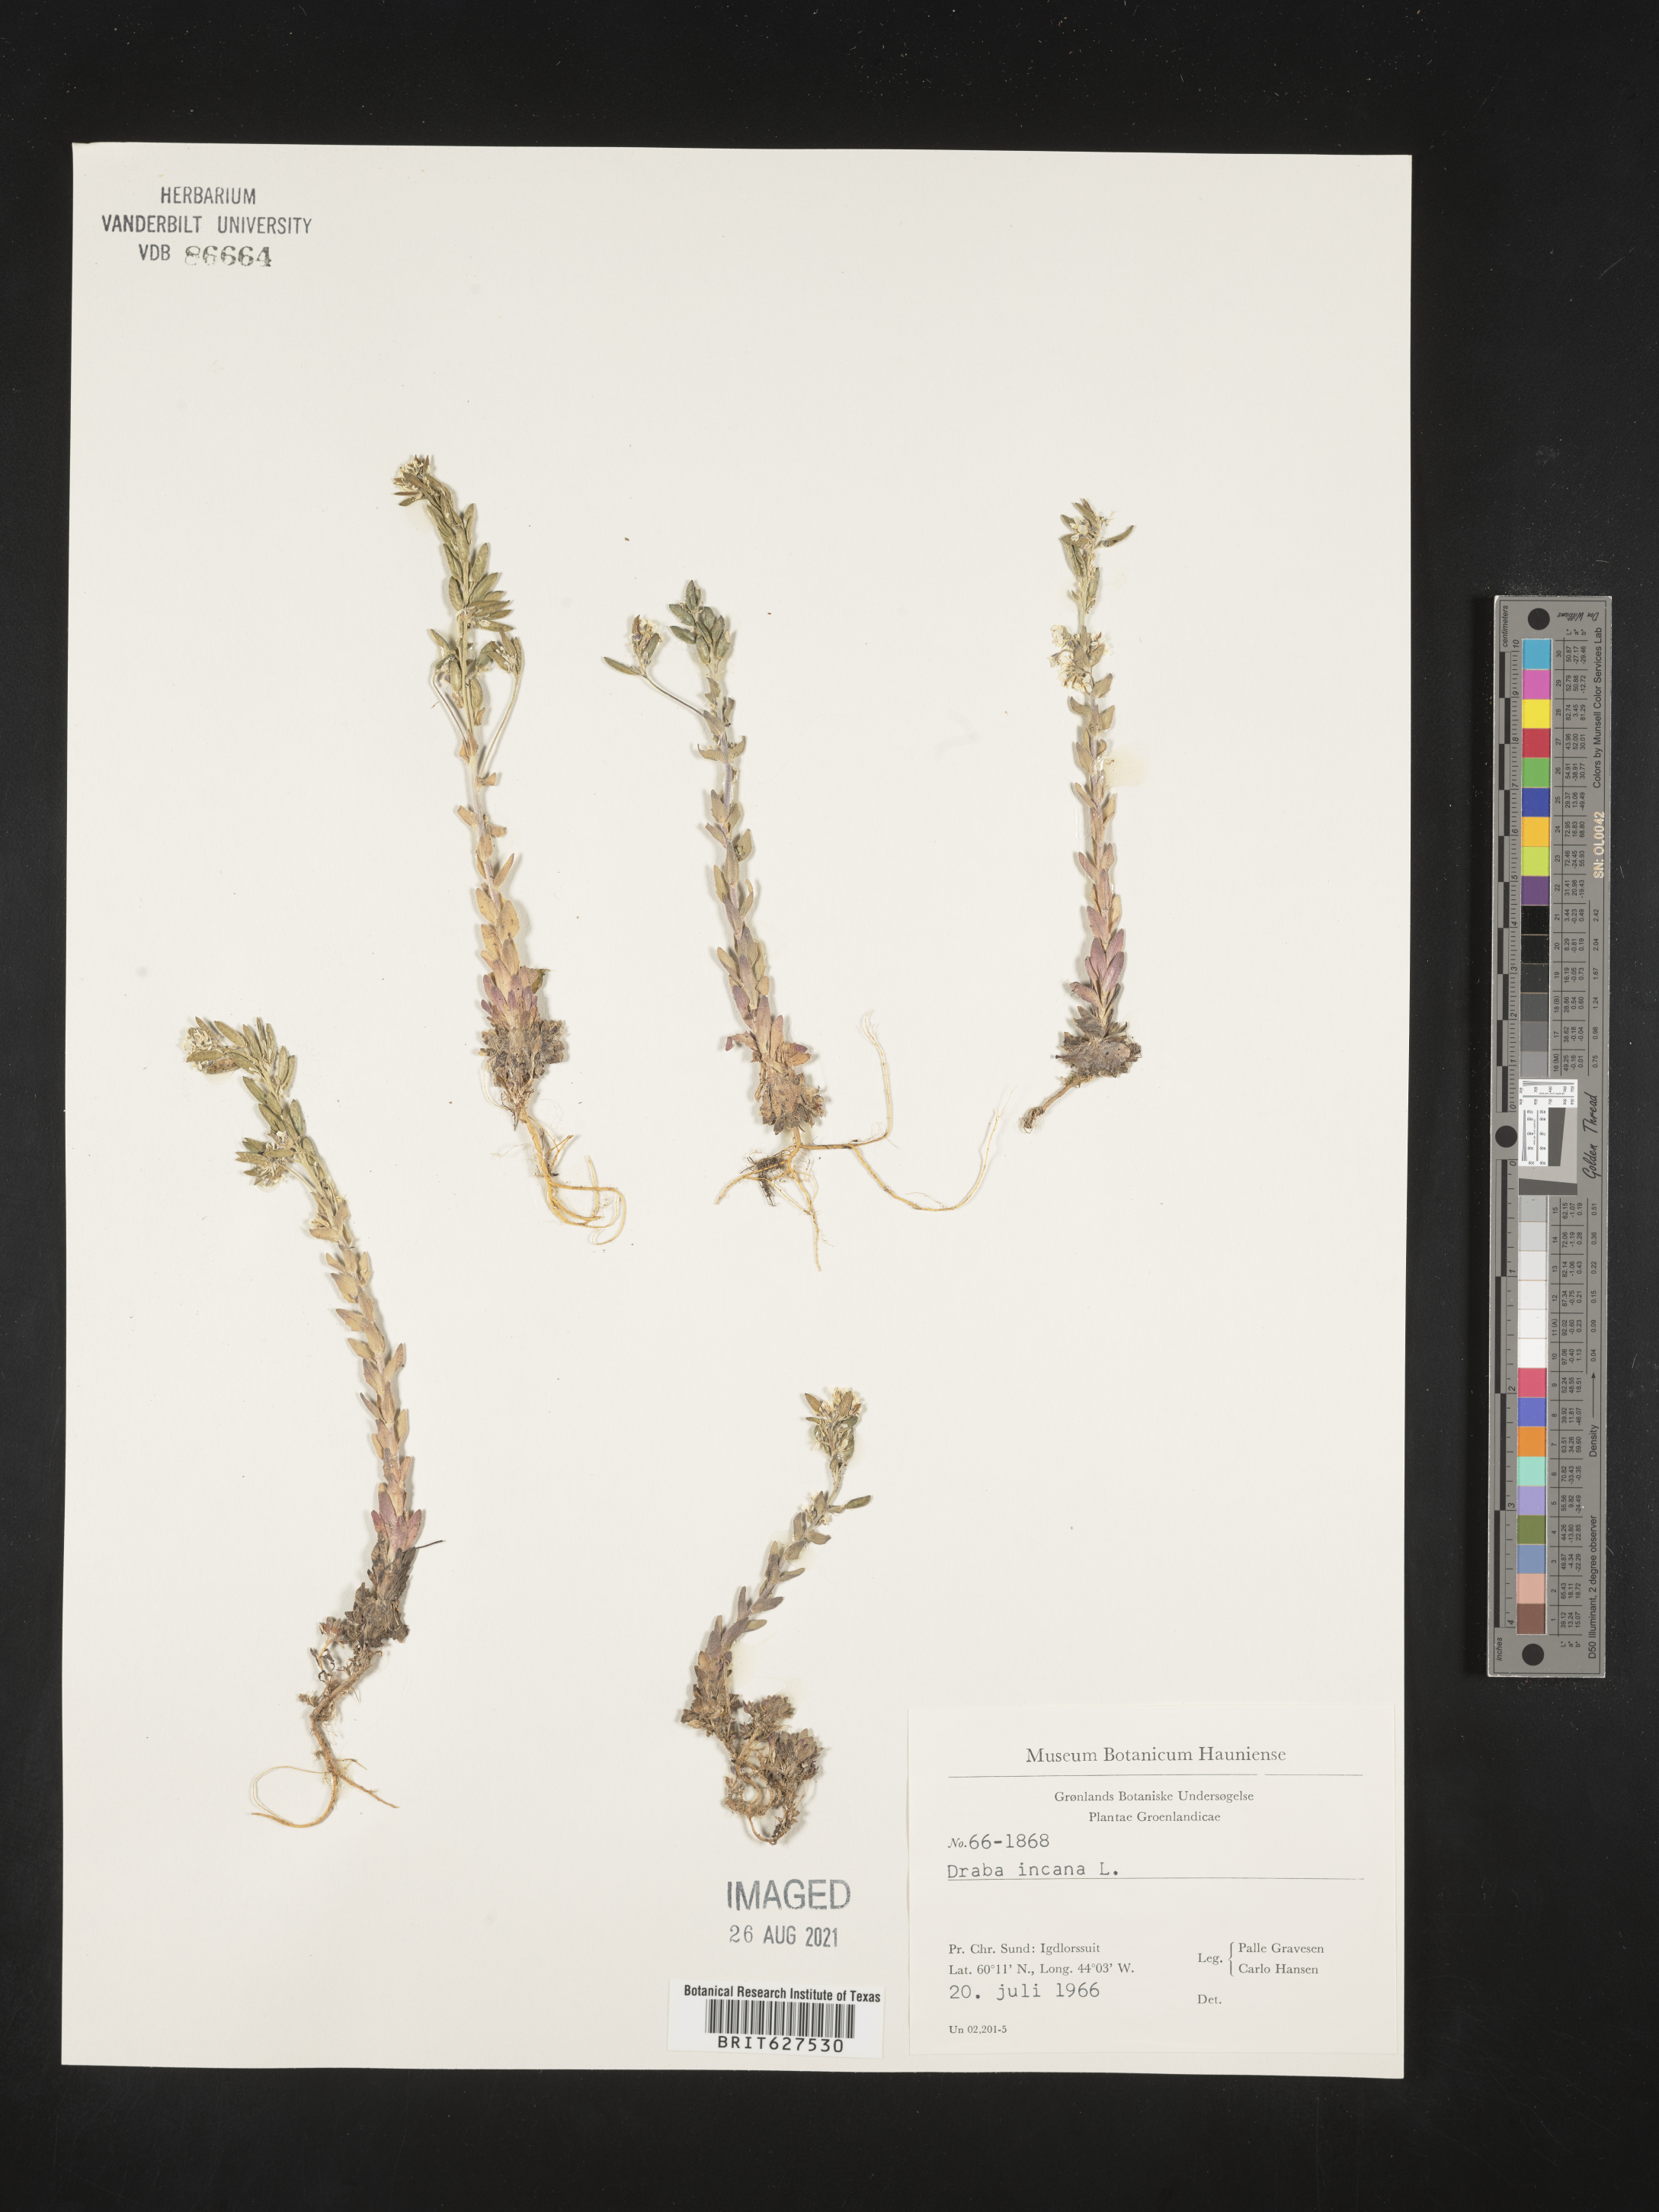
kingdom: Plantae
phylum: Tracheophyta
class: Magnoliopsida
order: Brassicales
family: Brassicaceae
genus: Draba
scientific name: Draba incana
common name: Hoary whitlow-grass
